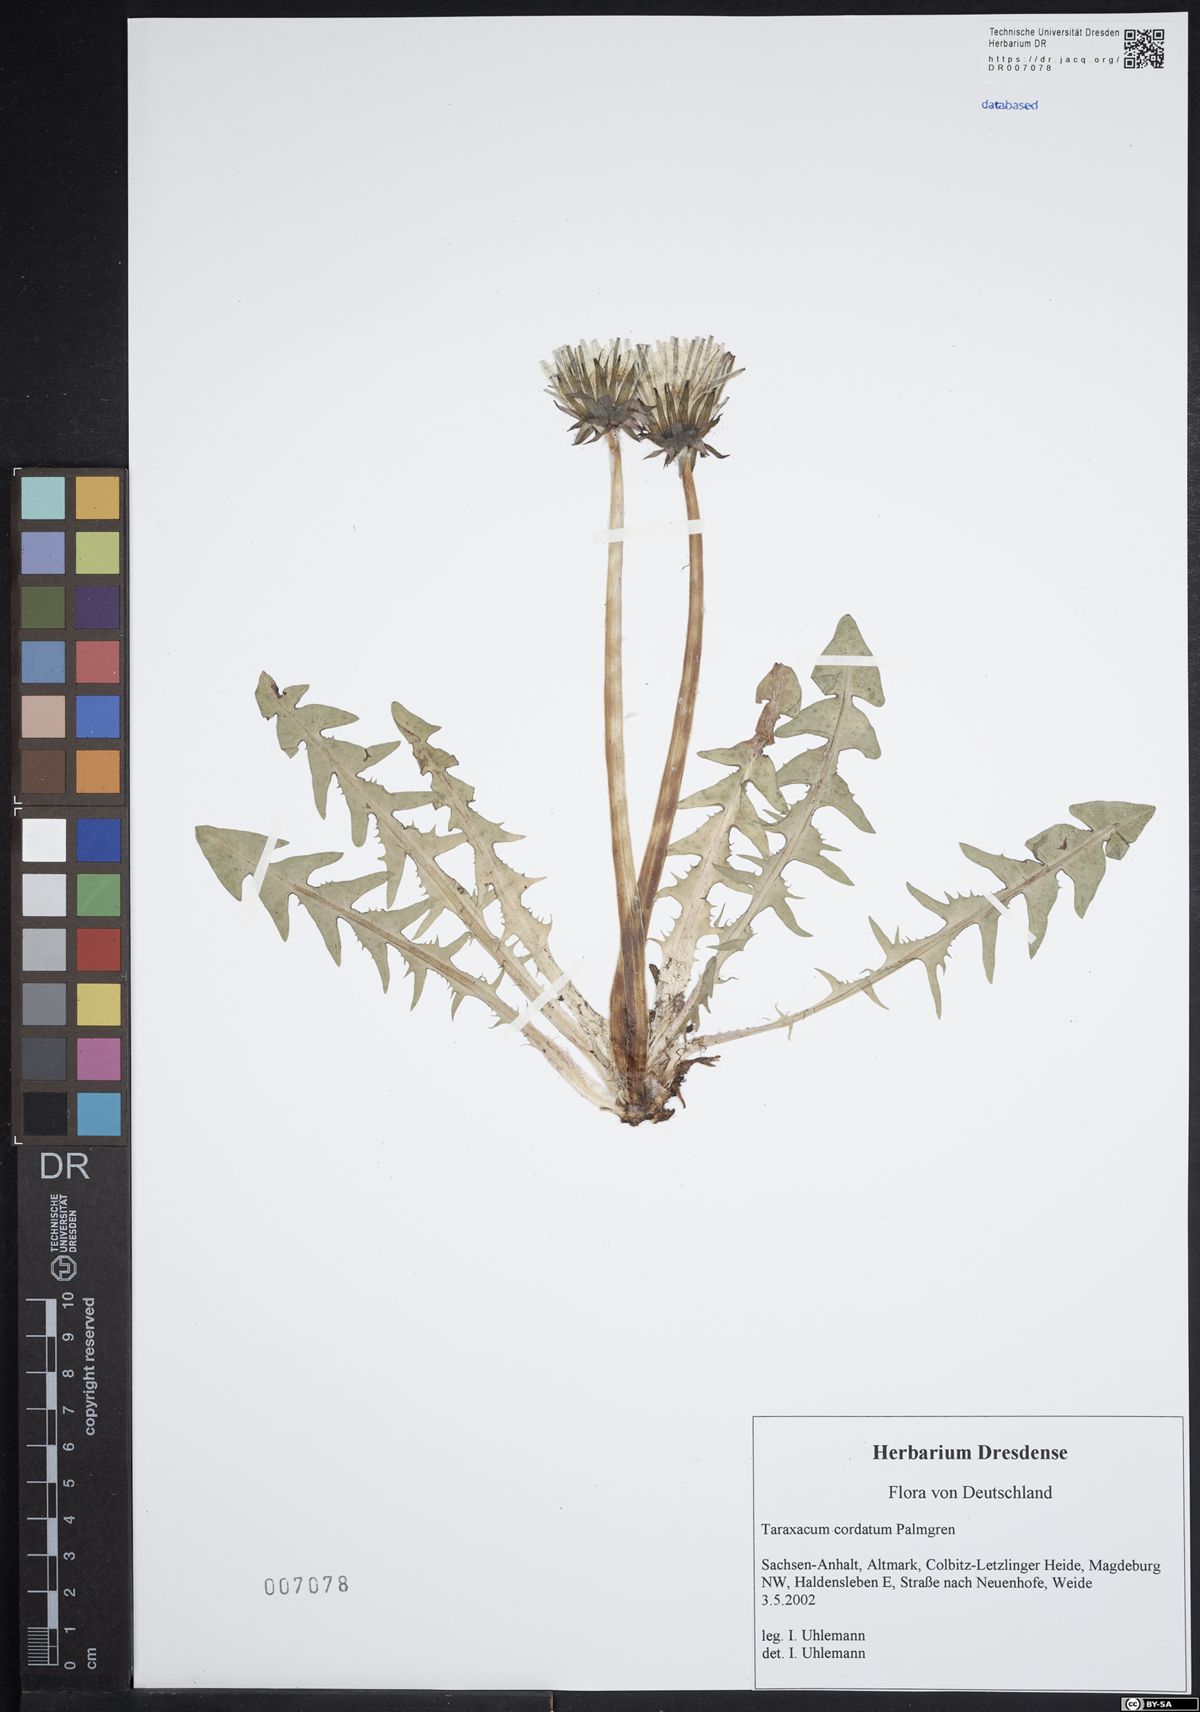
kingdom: Plantae
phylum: Tracheophyta
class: Magnoliopsida
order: Asterales
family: Asteraceae
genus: Taraxacum
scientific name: Taraxacum cordatum
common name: Entire-lobed dandelion
